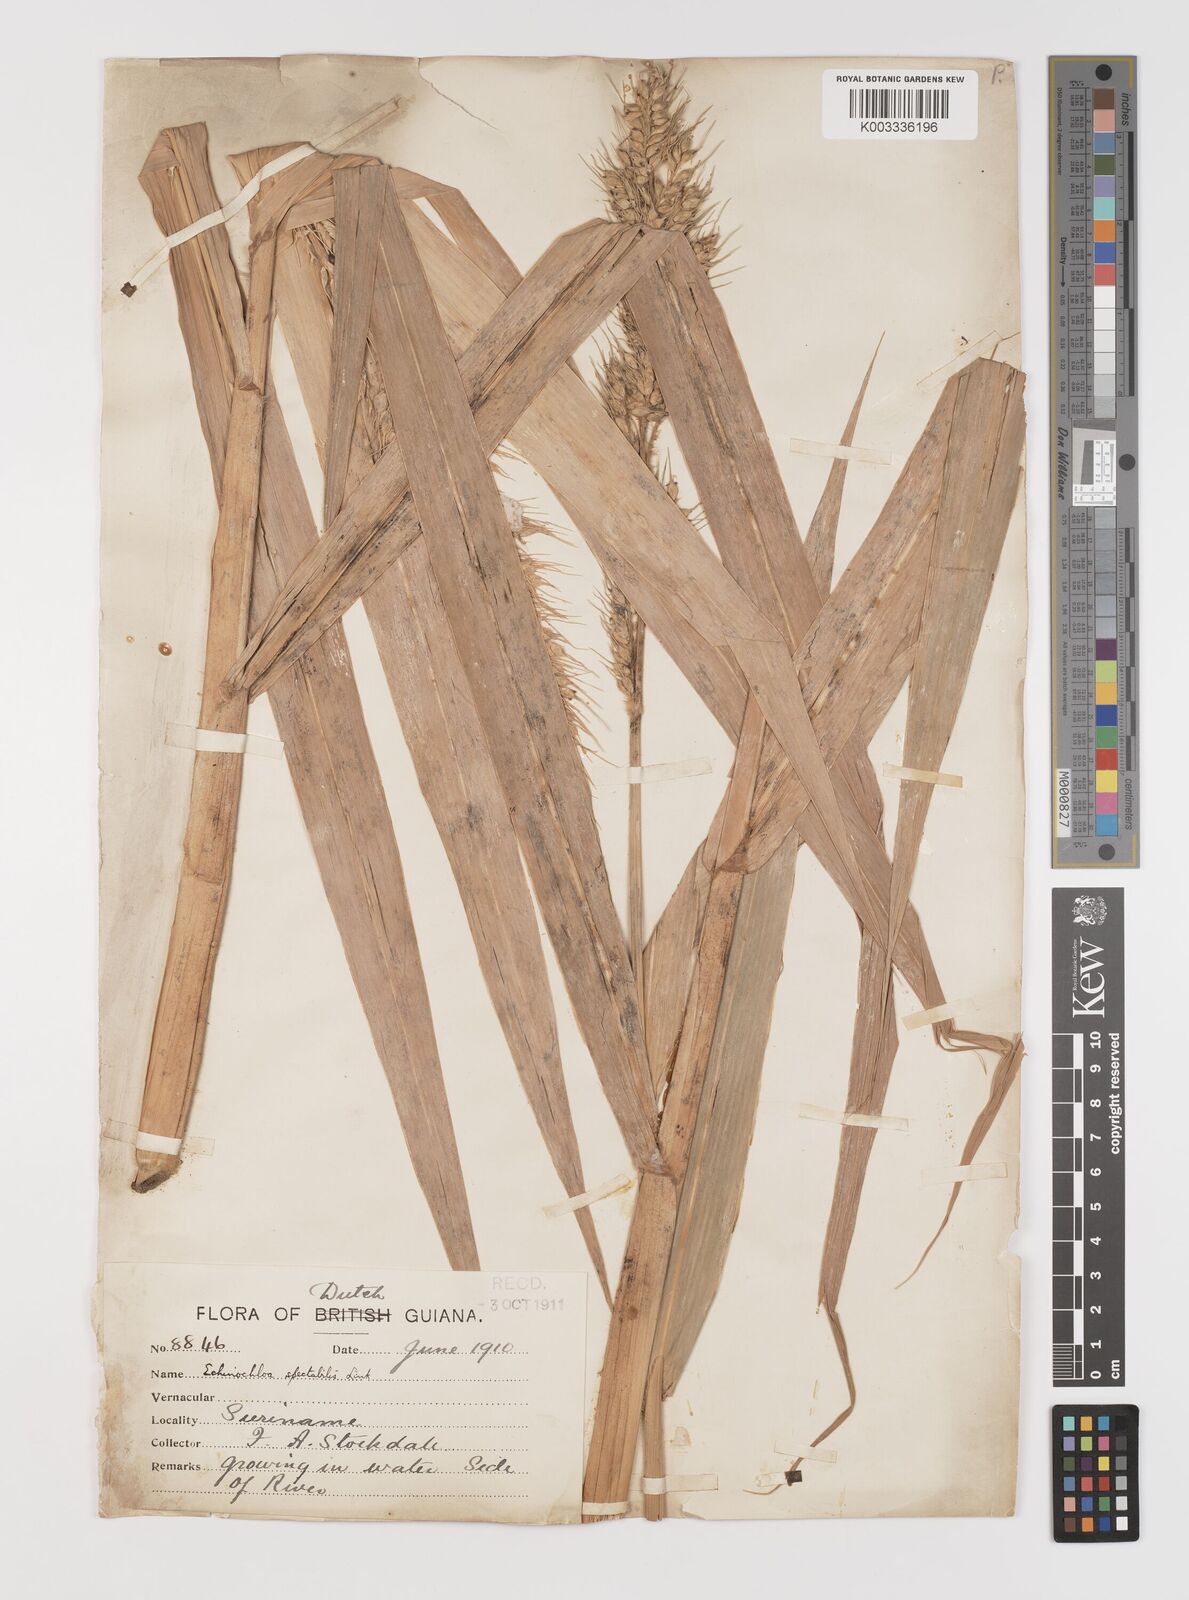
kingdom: Plantae
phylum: Tracheophyta
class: Liliopsida
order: Poales
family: Poaceae
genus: Echinochloa
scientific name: Echinochloa polystachya
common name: Creeping river grass
